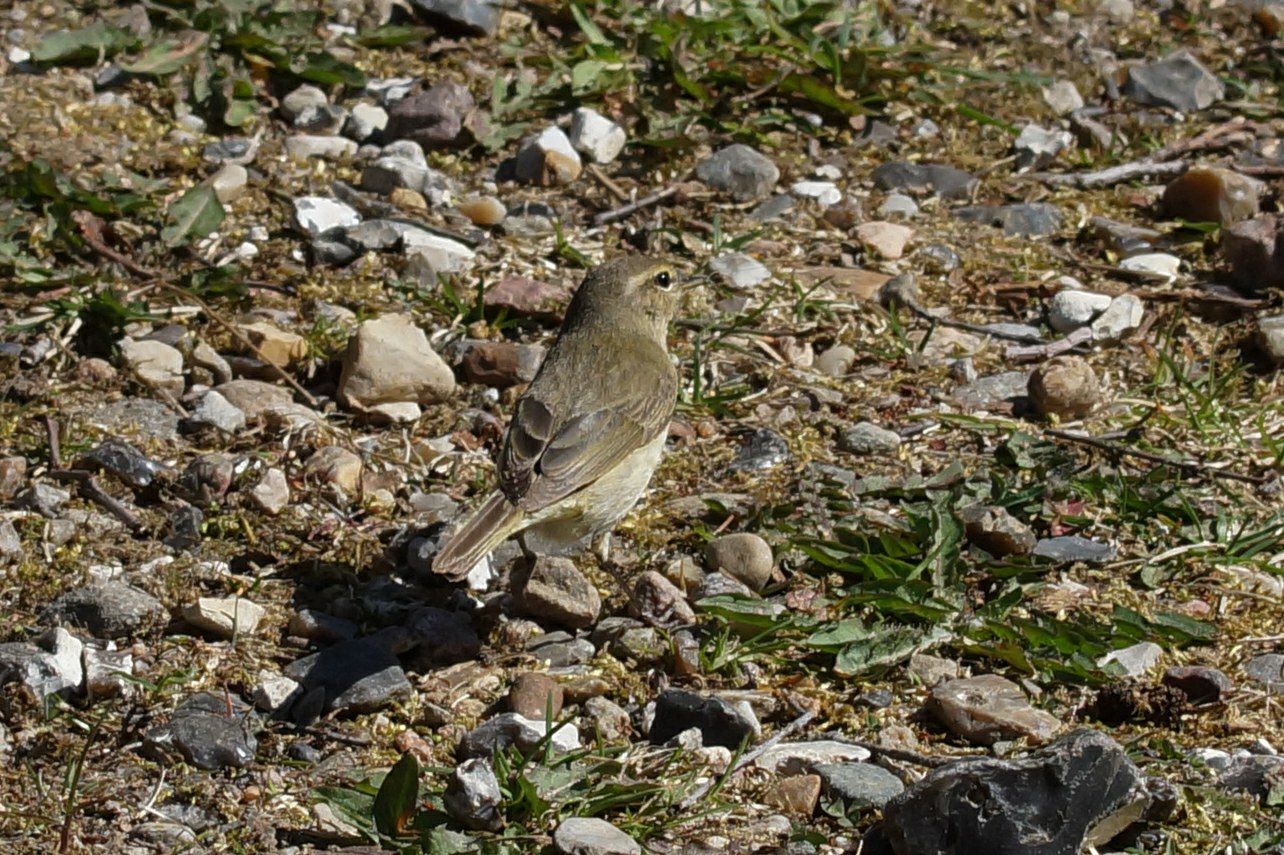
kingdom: Animalia
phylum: Chordata
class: Aves
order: Passeriformes
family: Phylloscopidae
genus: Phylloscopus
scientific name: Phylloscopus collybita
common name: Gransanger
